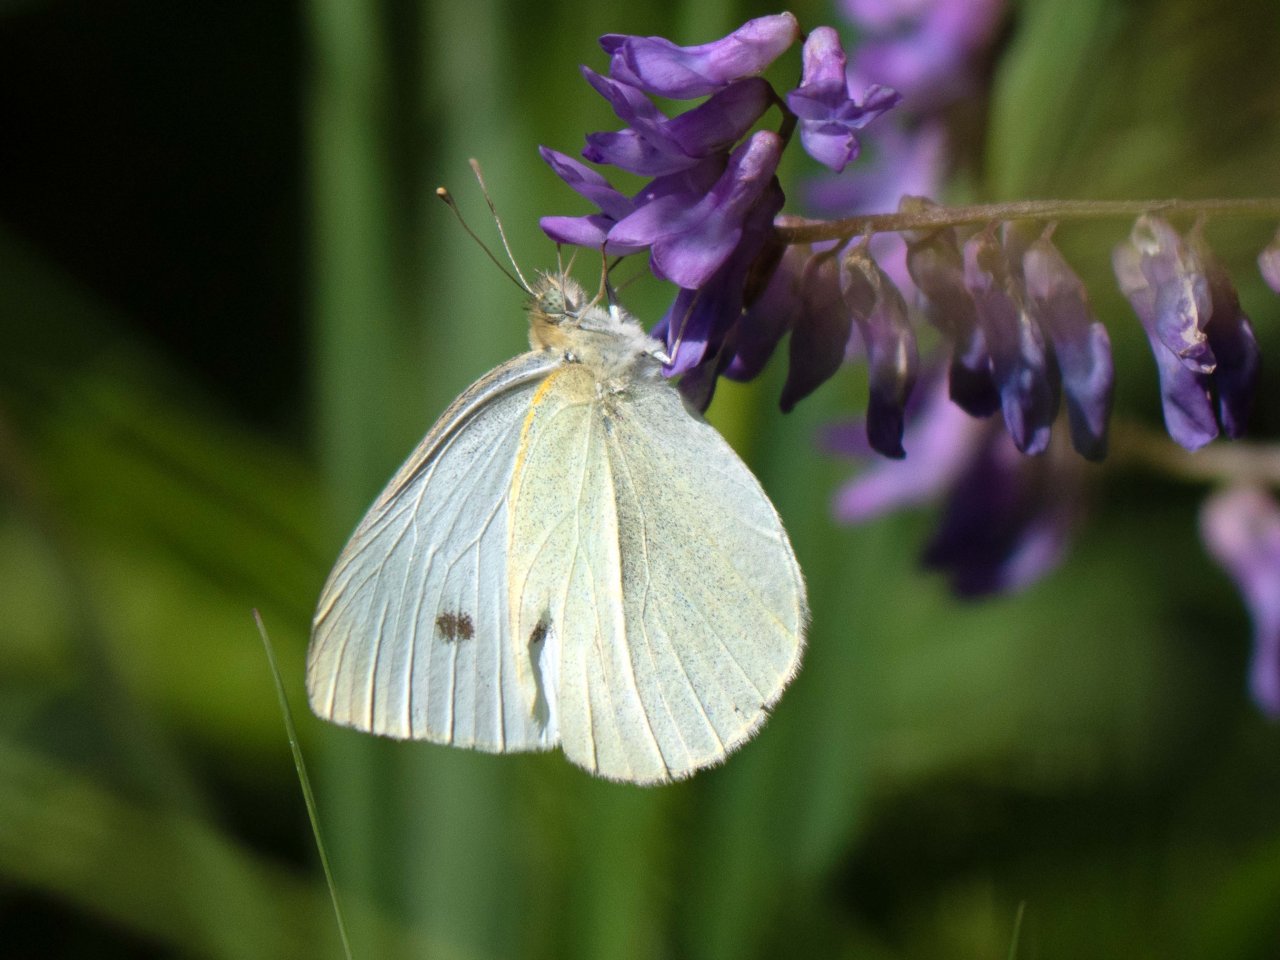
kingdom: Animalia
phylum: Arthropoda
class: Insecta
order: Lepidoptera
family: Pieridae
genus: Pieris
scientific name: Pieris rapae
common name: Cabbage White
